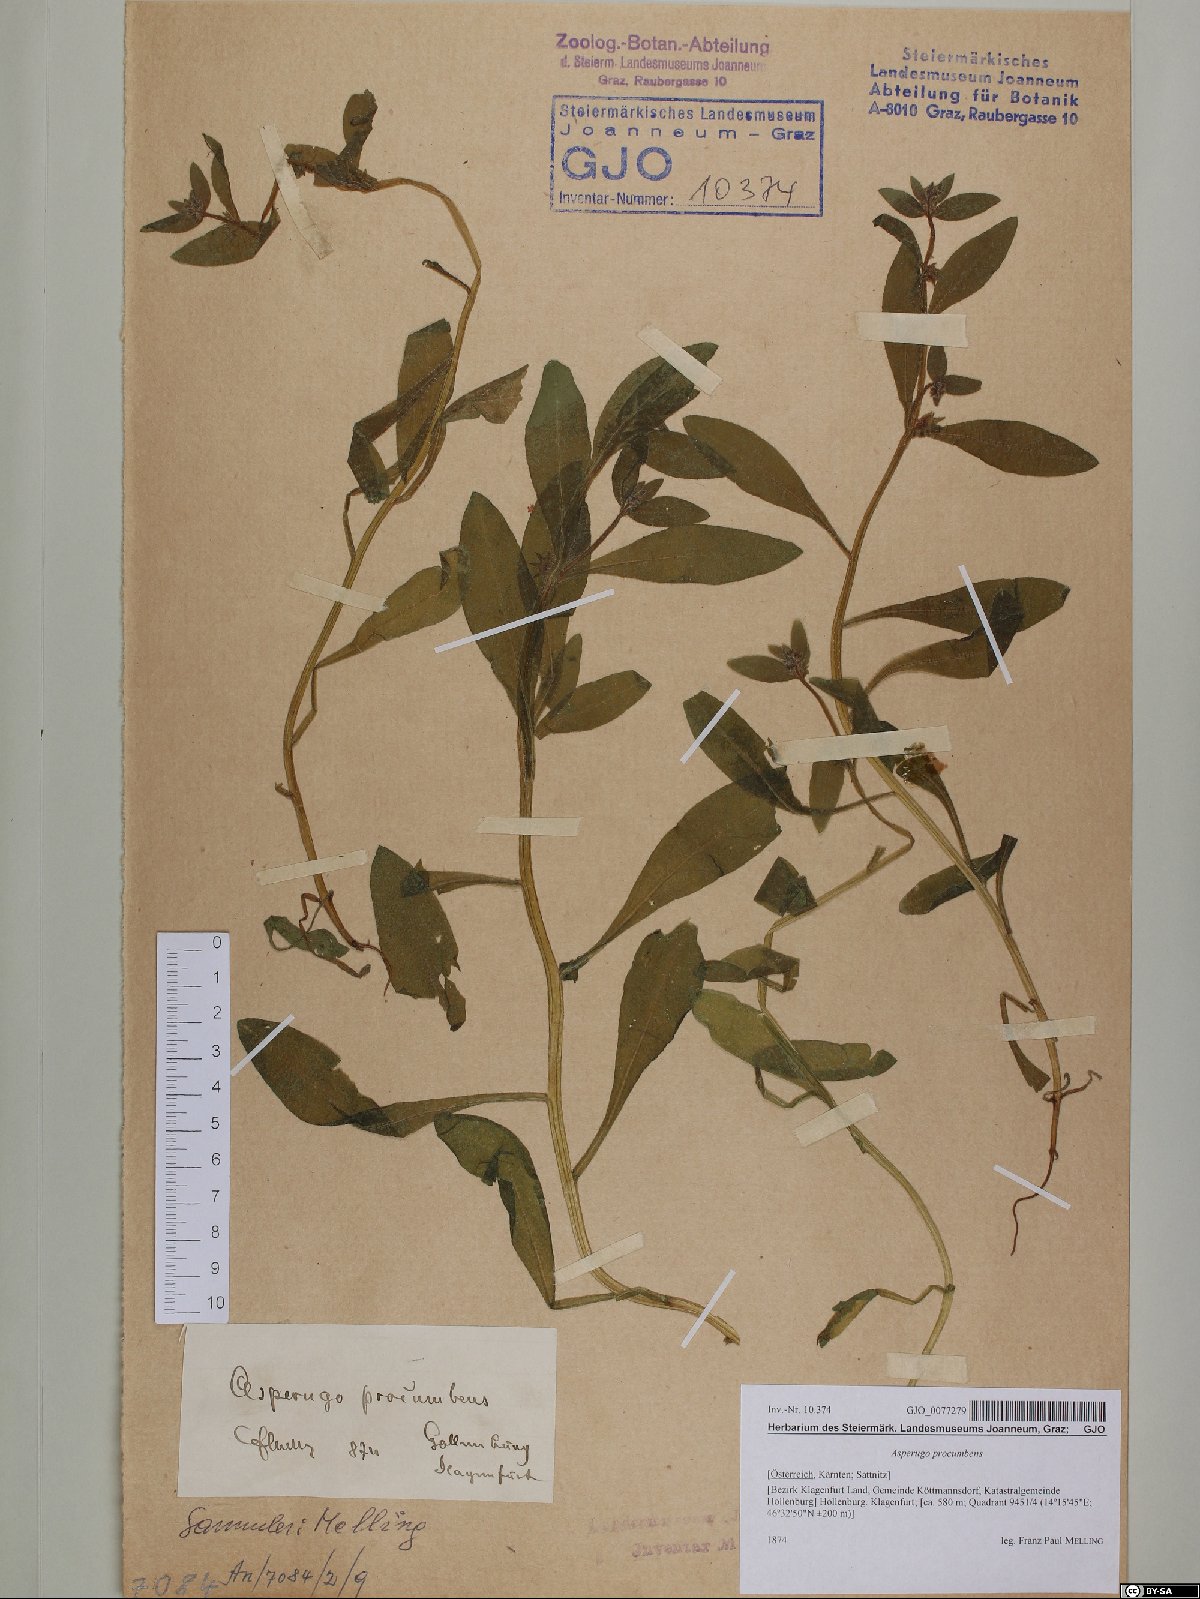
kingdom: Plantae
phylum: Tracheophyta
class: Magnoliopsida
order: Boraginales
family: Boraginaceae
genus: Asperugo
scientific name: Asperugo procumbens
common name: Madwort
